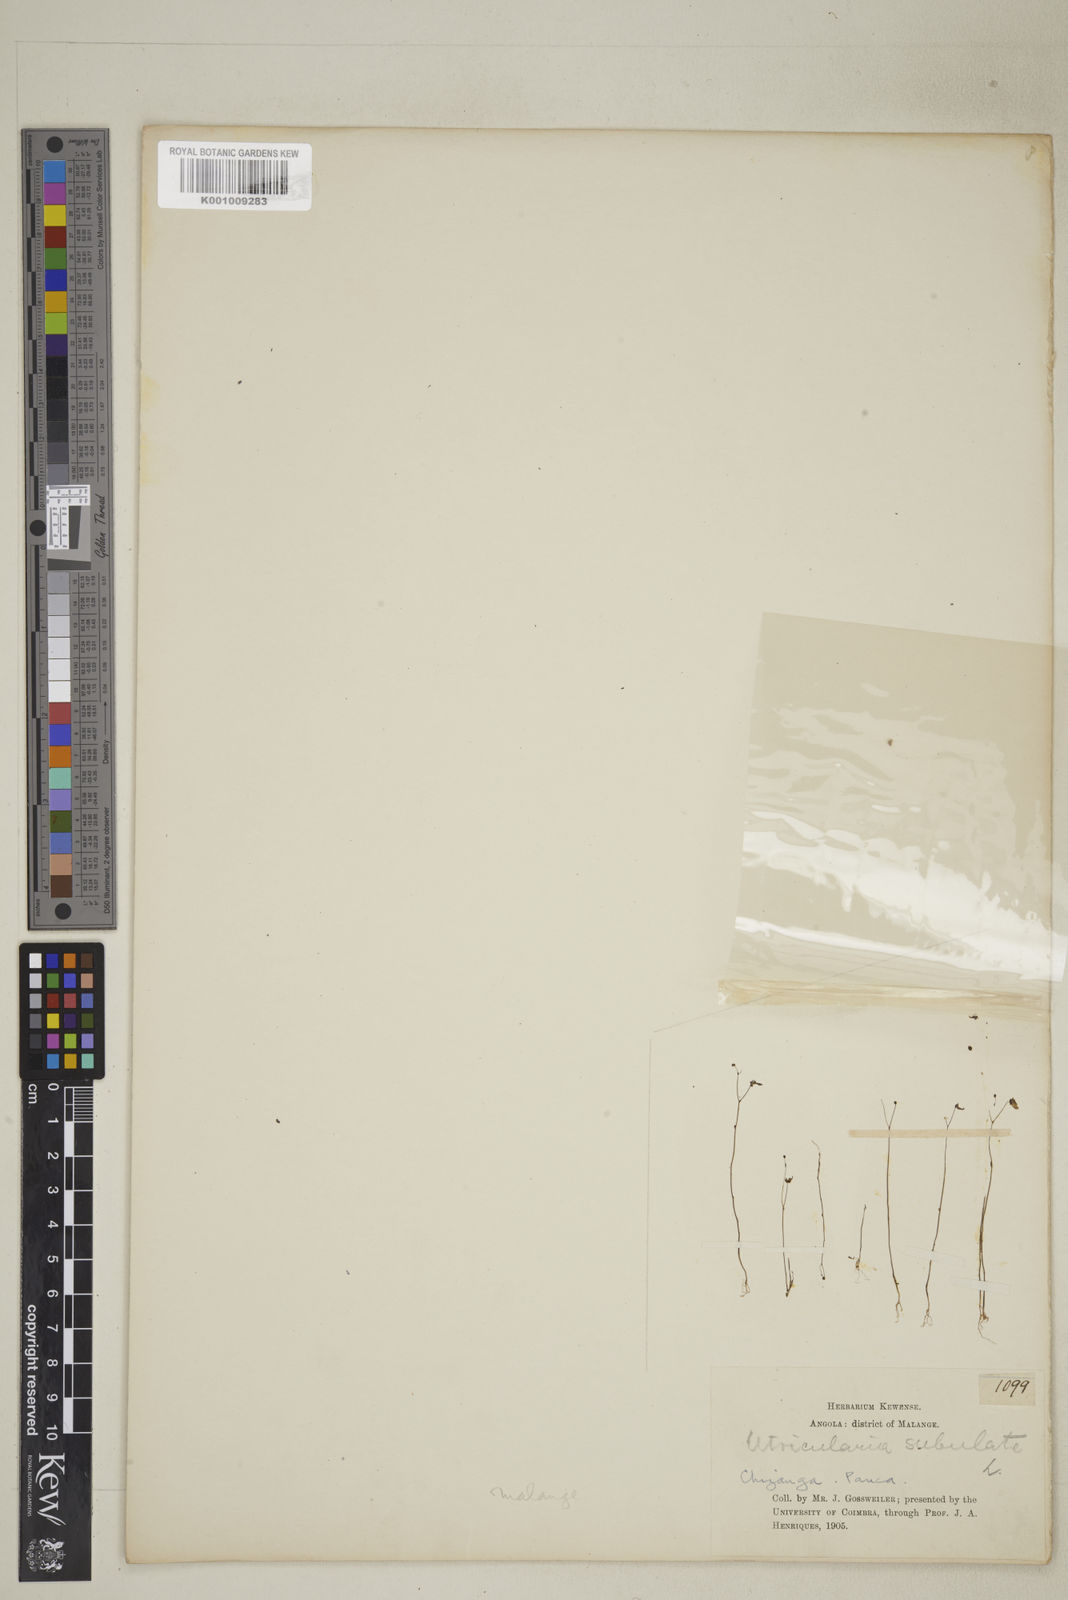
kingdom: Plantae
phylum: Tracheophyta
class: Magnoliopsida
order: Lamiales
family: Lentibulariaceae
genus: Utricularia
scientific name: Utricularia subulata
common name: Tiny bladderwort
